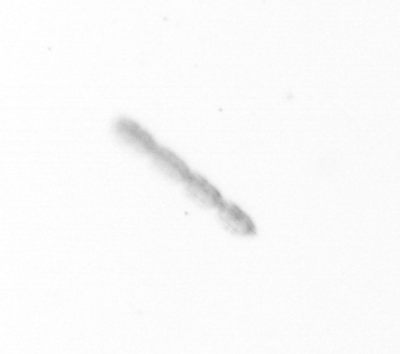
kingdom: Chromista
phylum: Ochrophyta
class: Bacillariophyceae
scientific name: Bacillariophyceae
